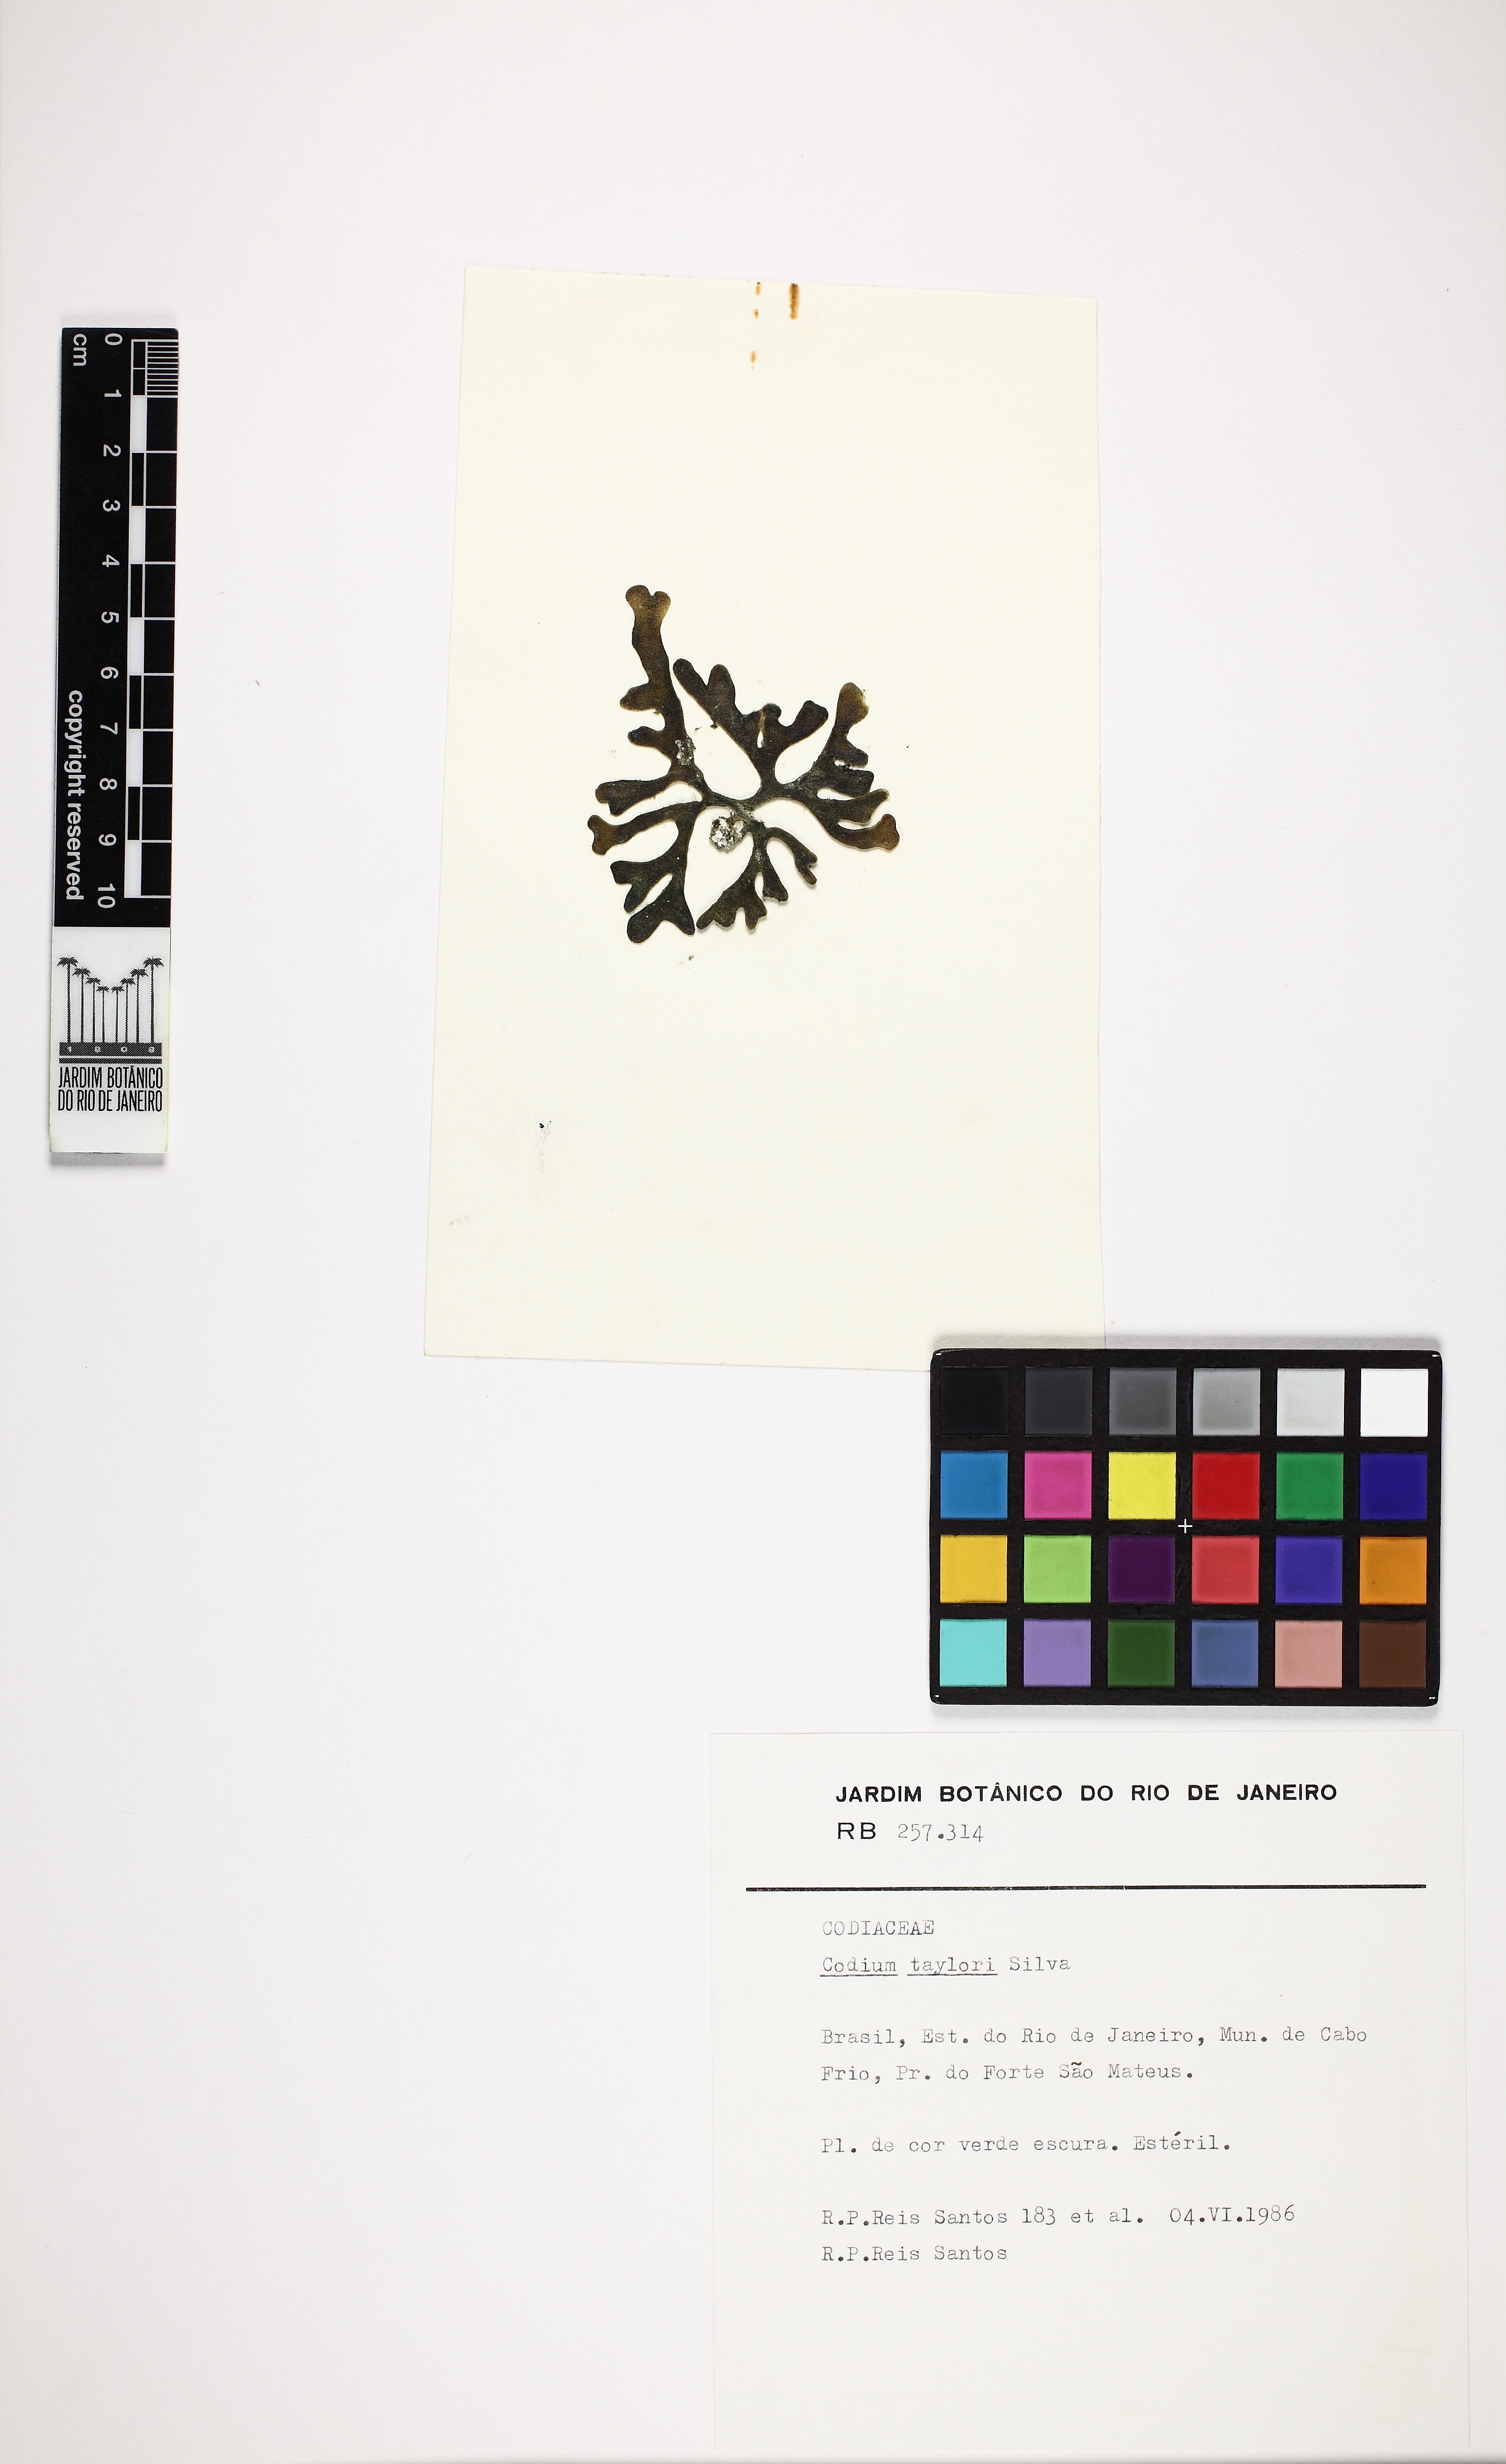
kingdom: Plantae
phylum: Chlorophyta
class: Ulvophyceae
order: Bryopsidales
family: Codiaceae
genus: Codium
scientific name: Codium taylorii
